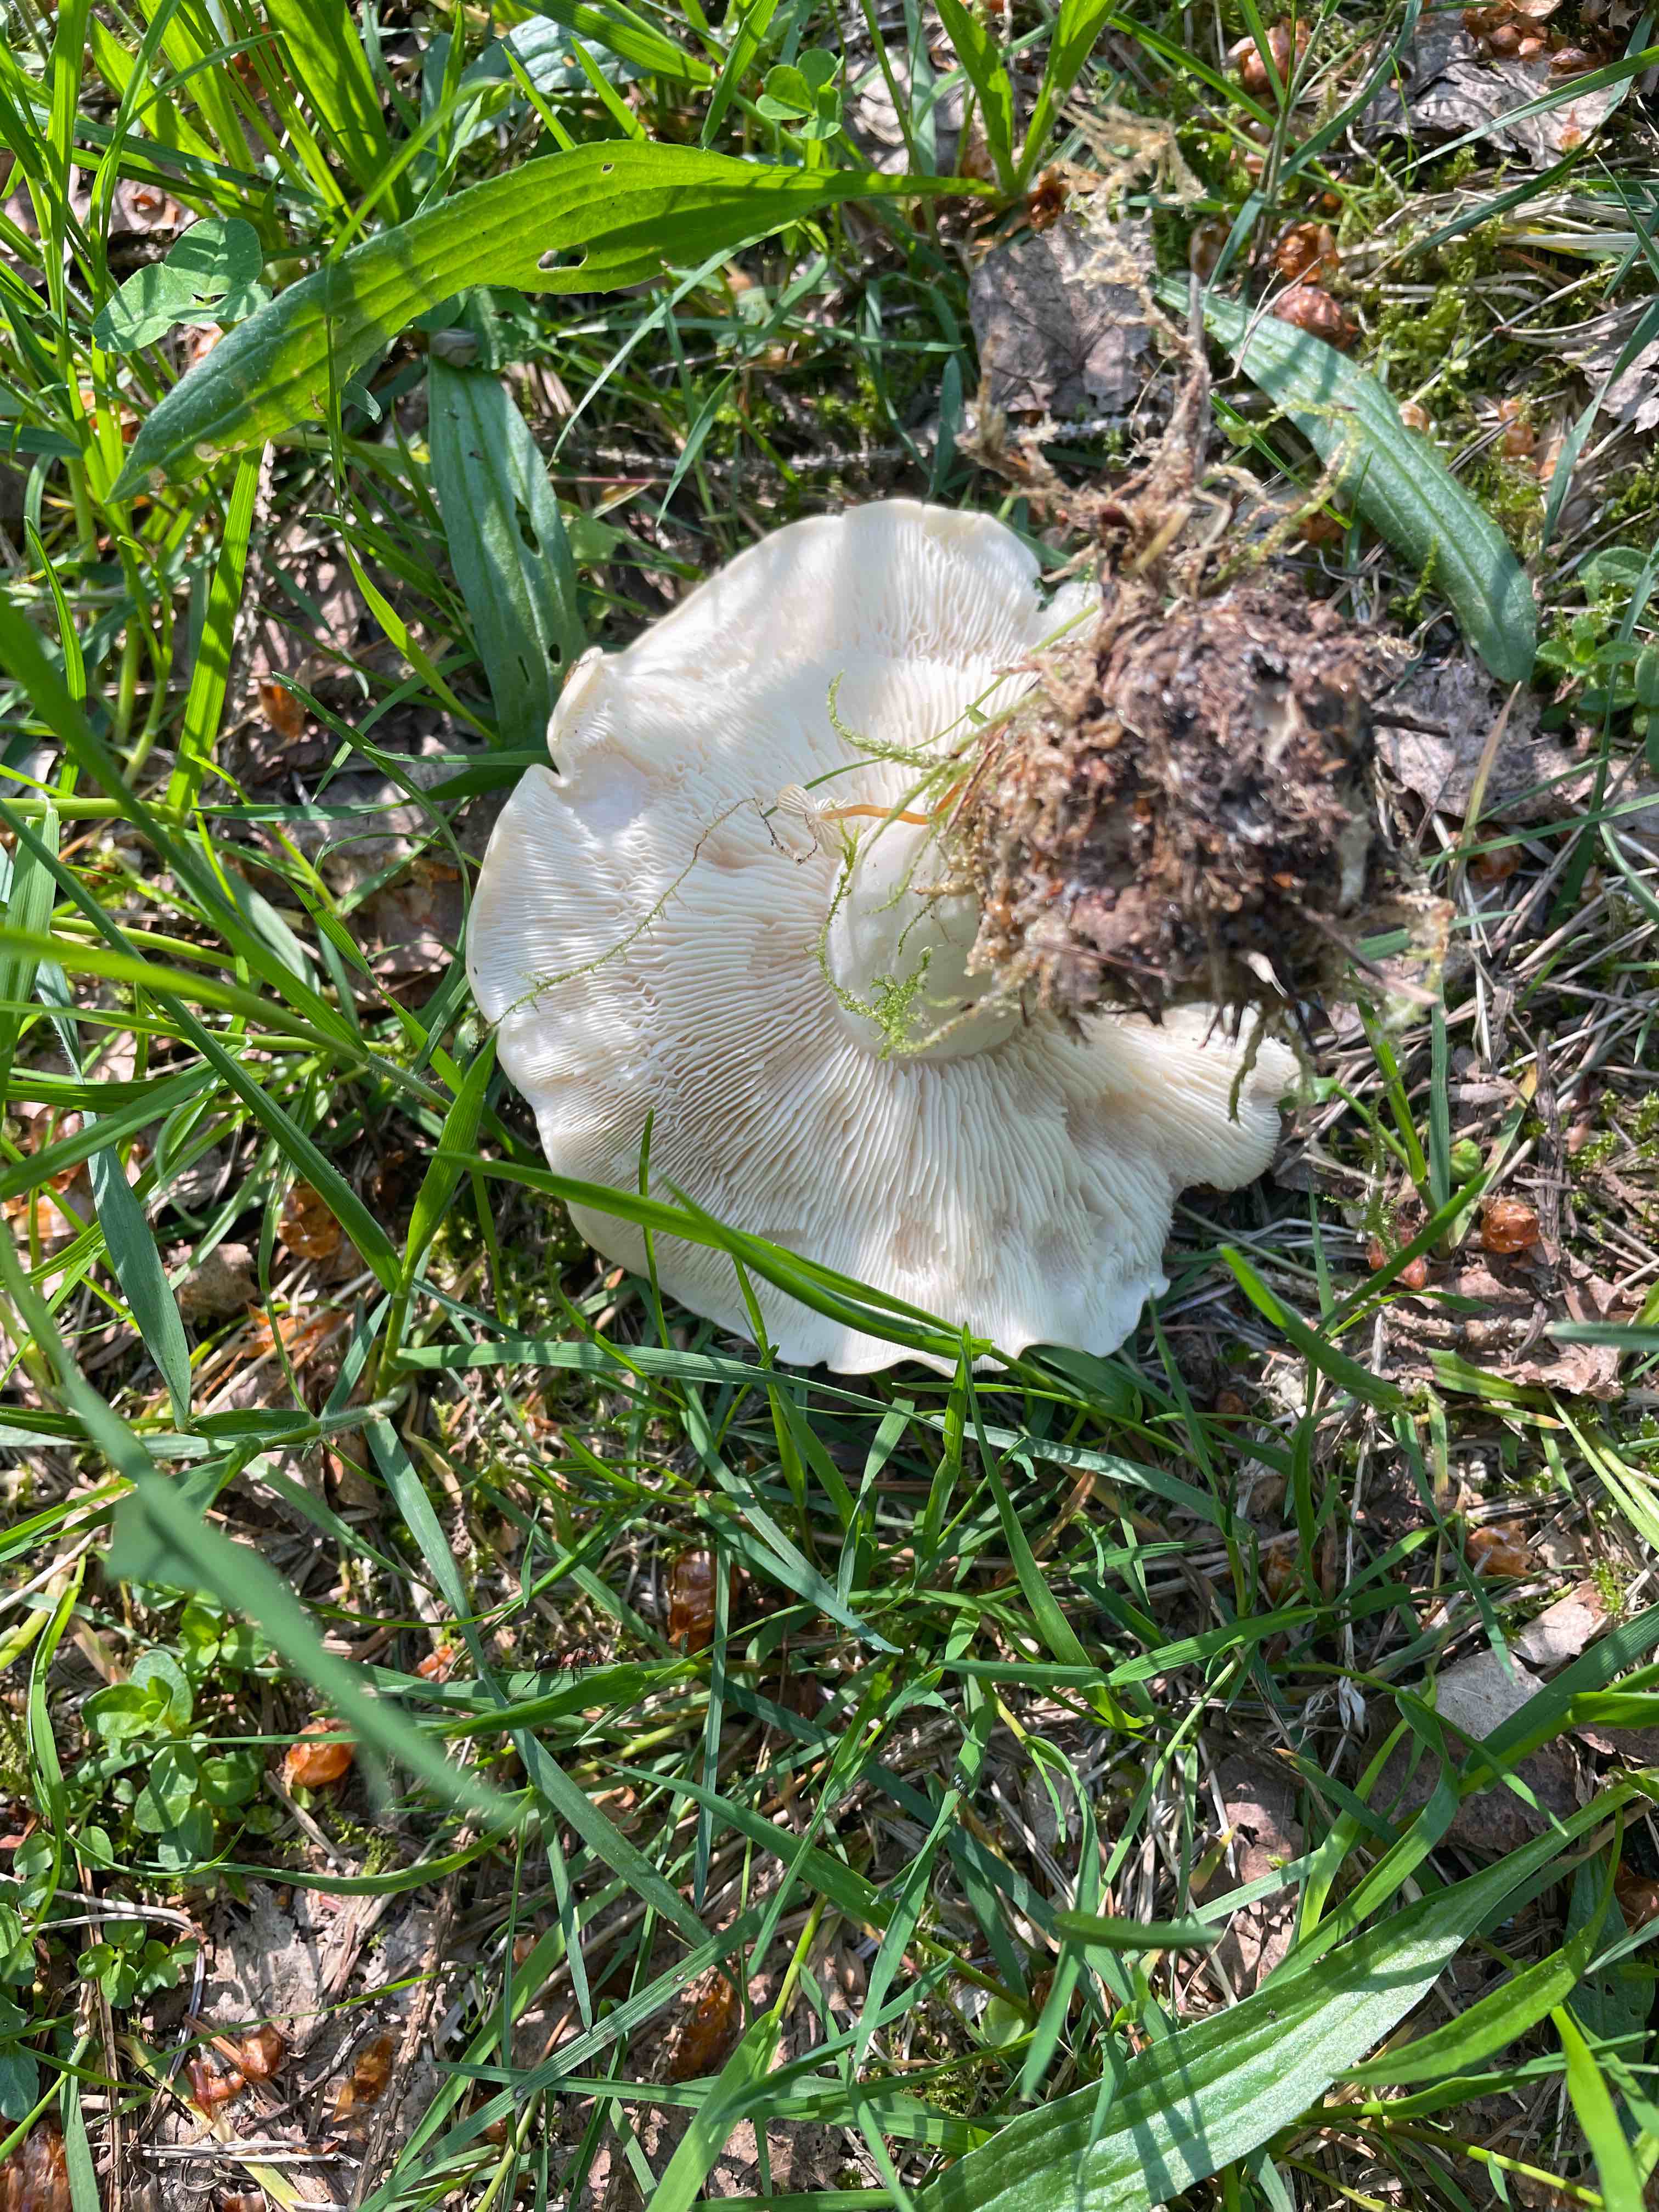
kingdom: Fungi
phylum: Basidiomycota
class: Agaricomycetes
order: Agaricales
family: Lyophyllaceae
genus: Calocybe
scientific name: Calocybe gambosa
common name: vårmusseron
